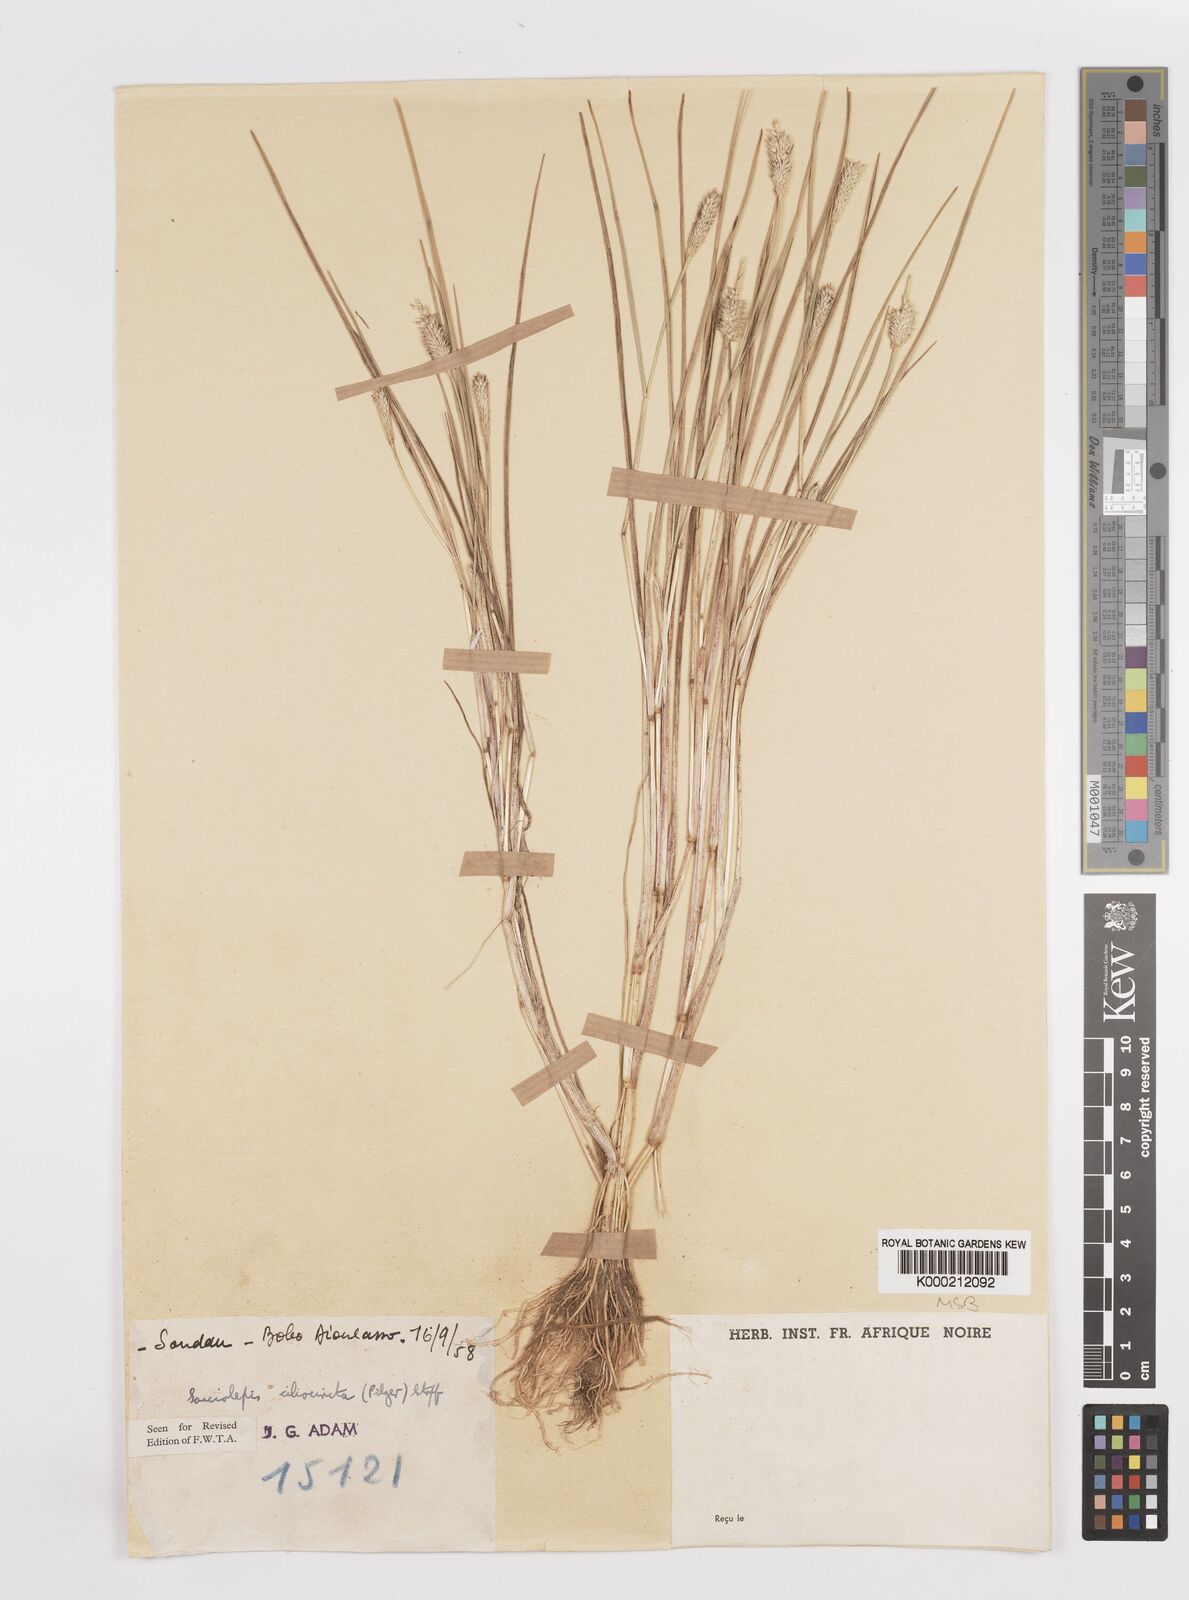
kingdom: Plantae
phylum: Tracheophyta
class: Liliopsida
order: Poales
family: Poaceae
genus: Sacciolepis
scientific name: Sacciolepis indica
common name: Glenwoodgrass
